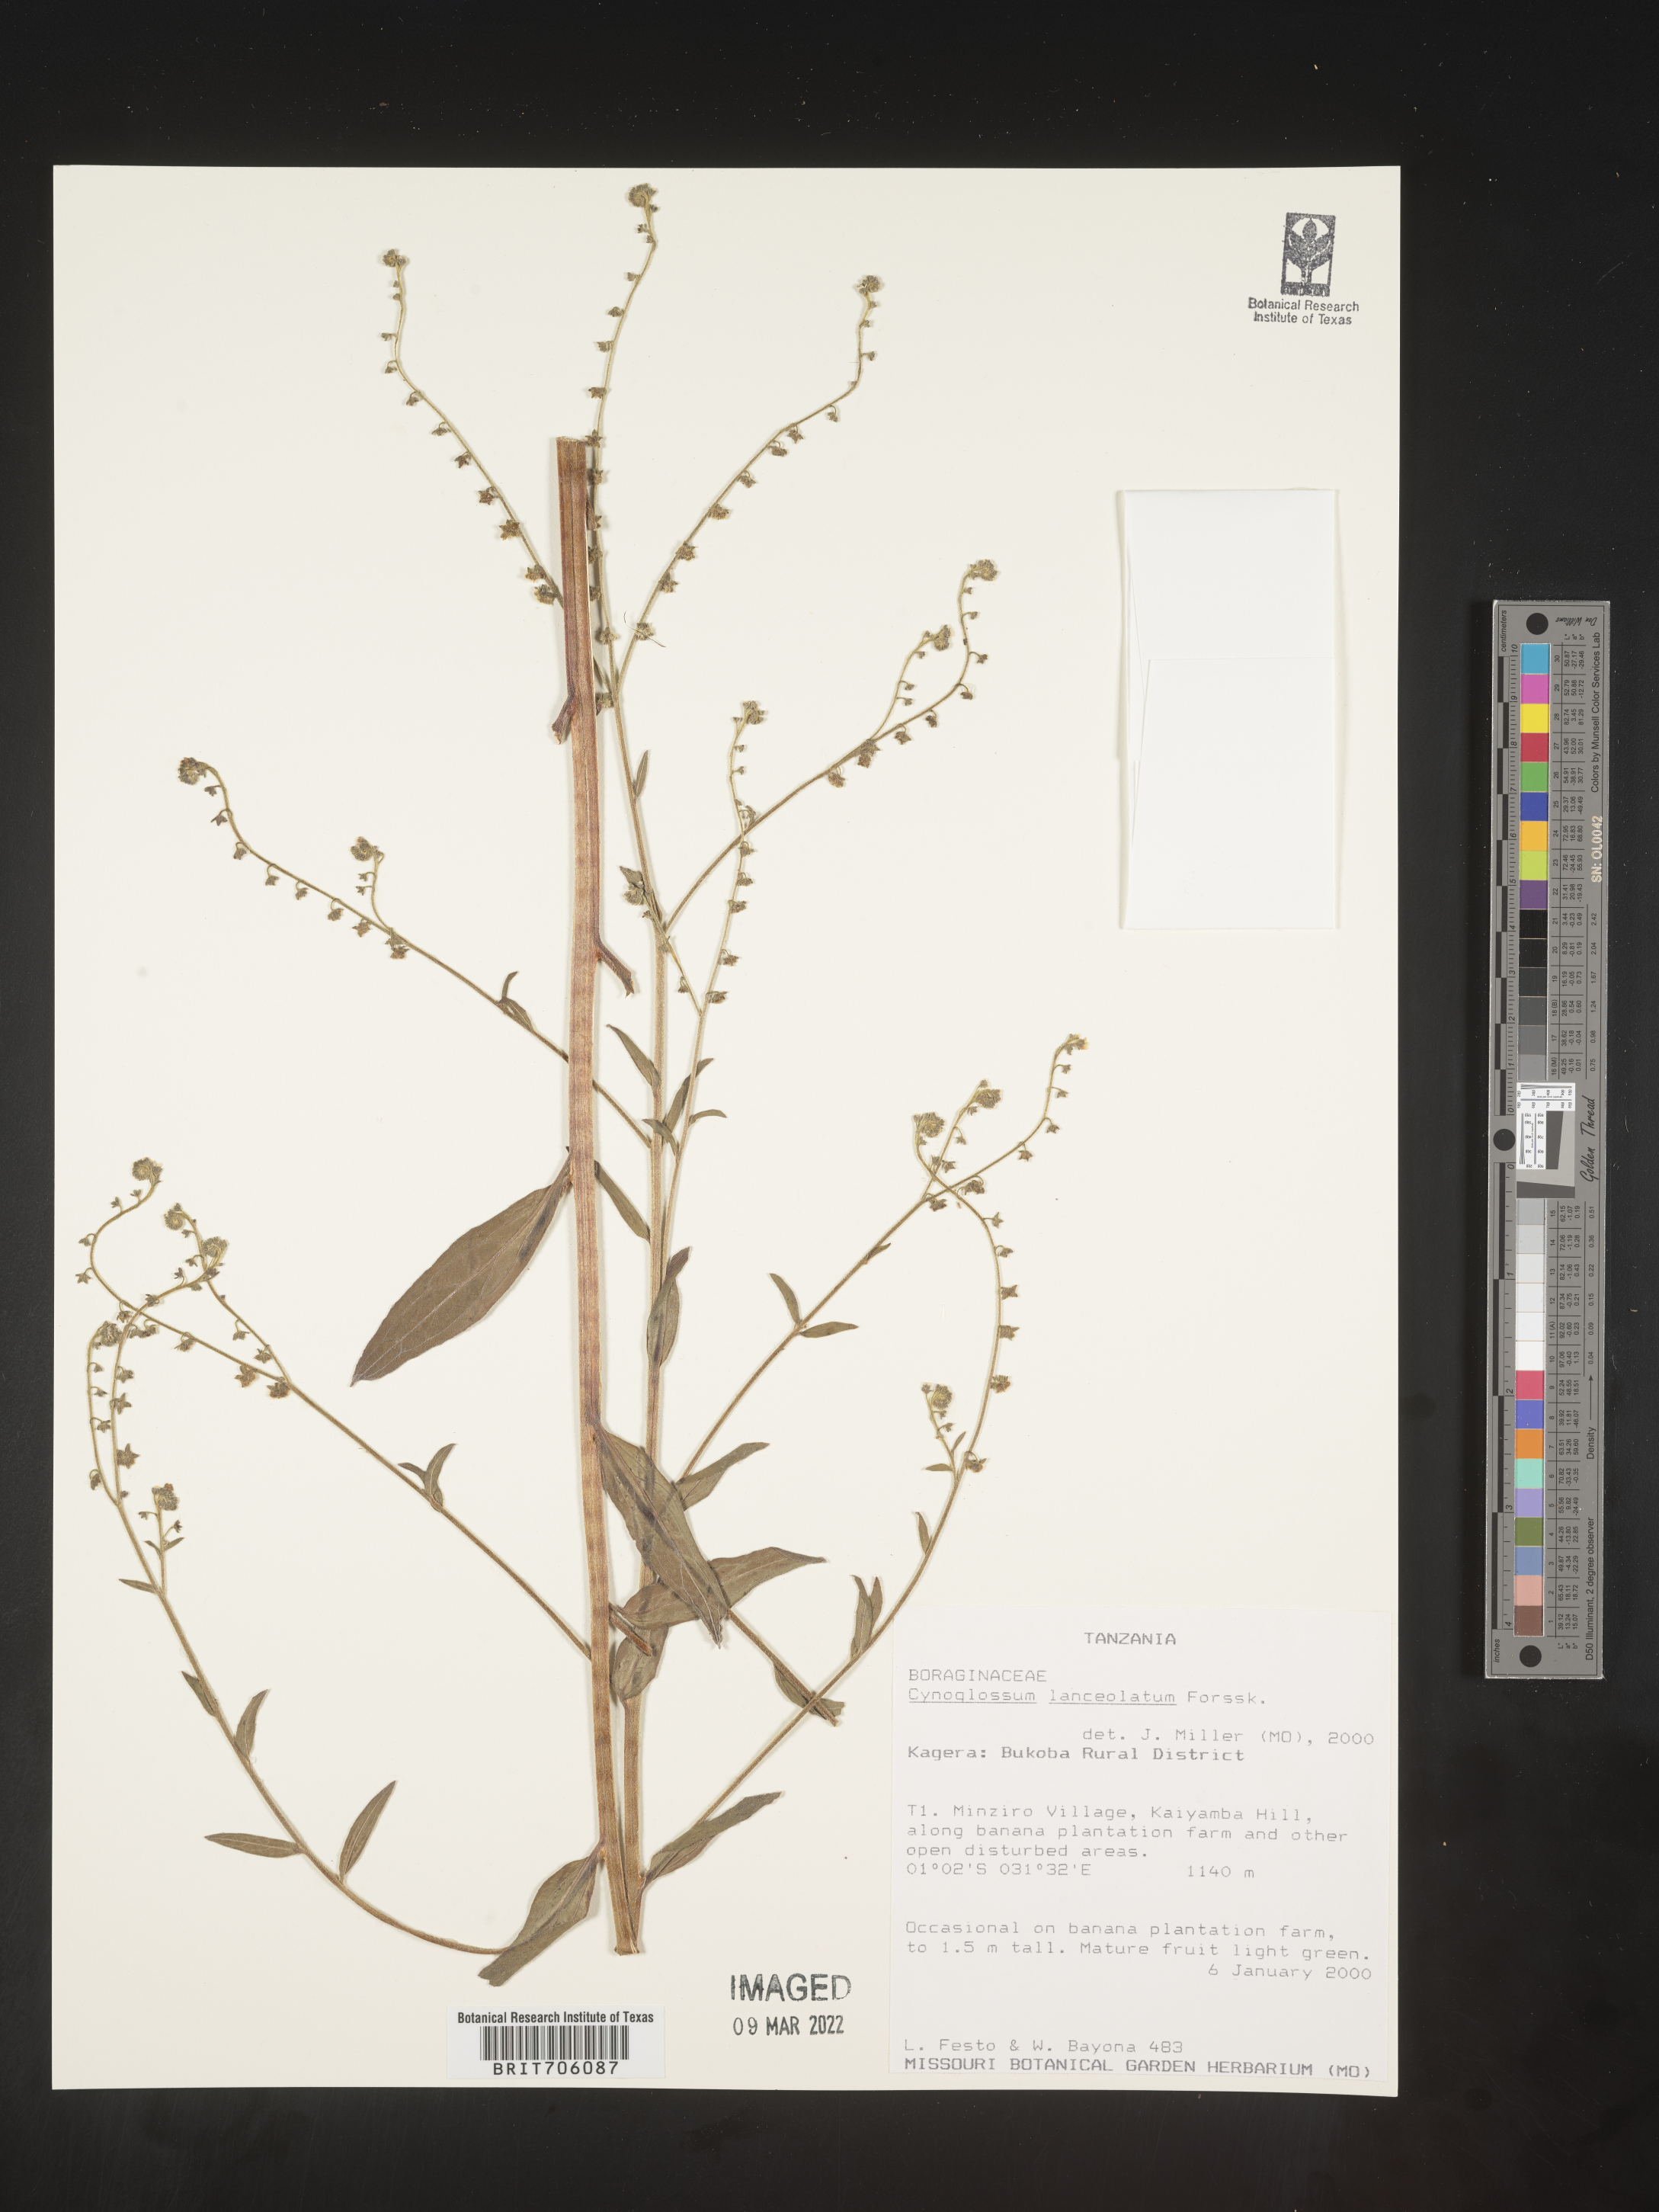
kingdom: Plantae
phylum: Tracheophyta
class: Magnoliopsida
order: Boraginales
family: Boraginaceae
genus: Cynoglossum
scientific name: Cynoglossum
